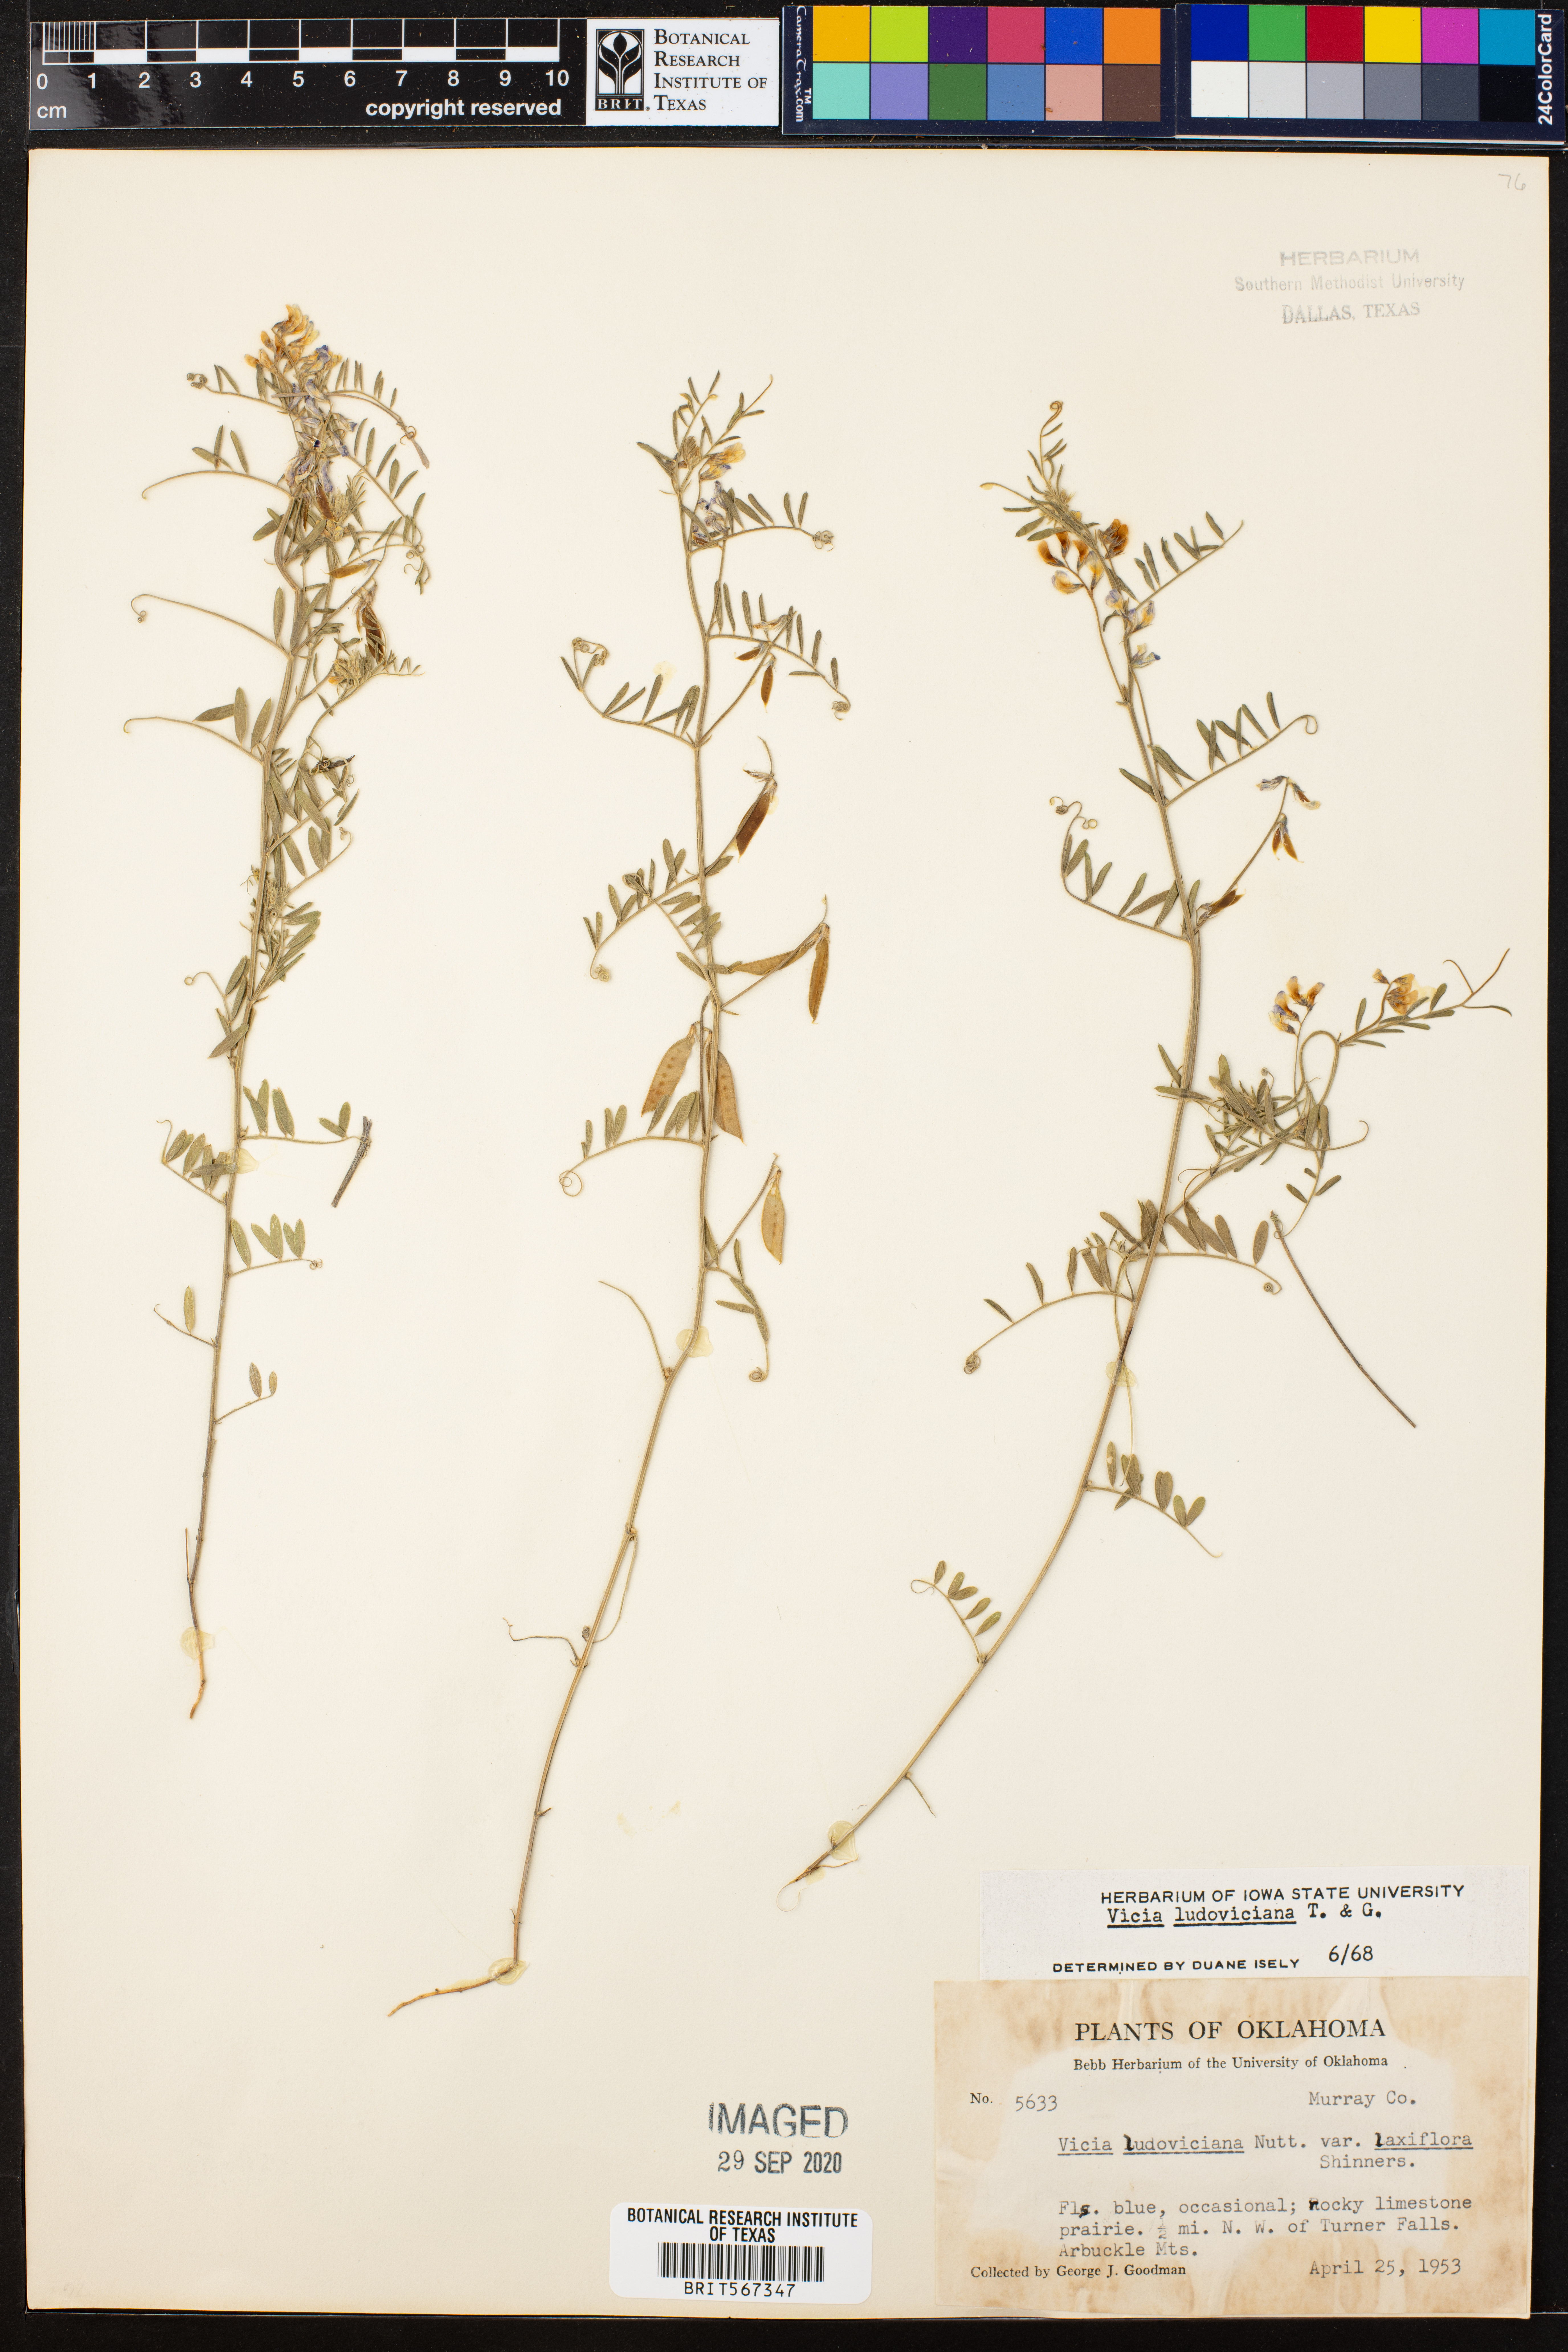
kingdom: Plantae
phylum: Tracheophyta
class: Magnoliopsida
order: Fabales
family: Fabaceae
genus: Vicia
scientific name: Vicia ludoviciana
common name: Louisiana vetch
